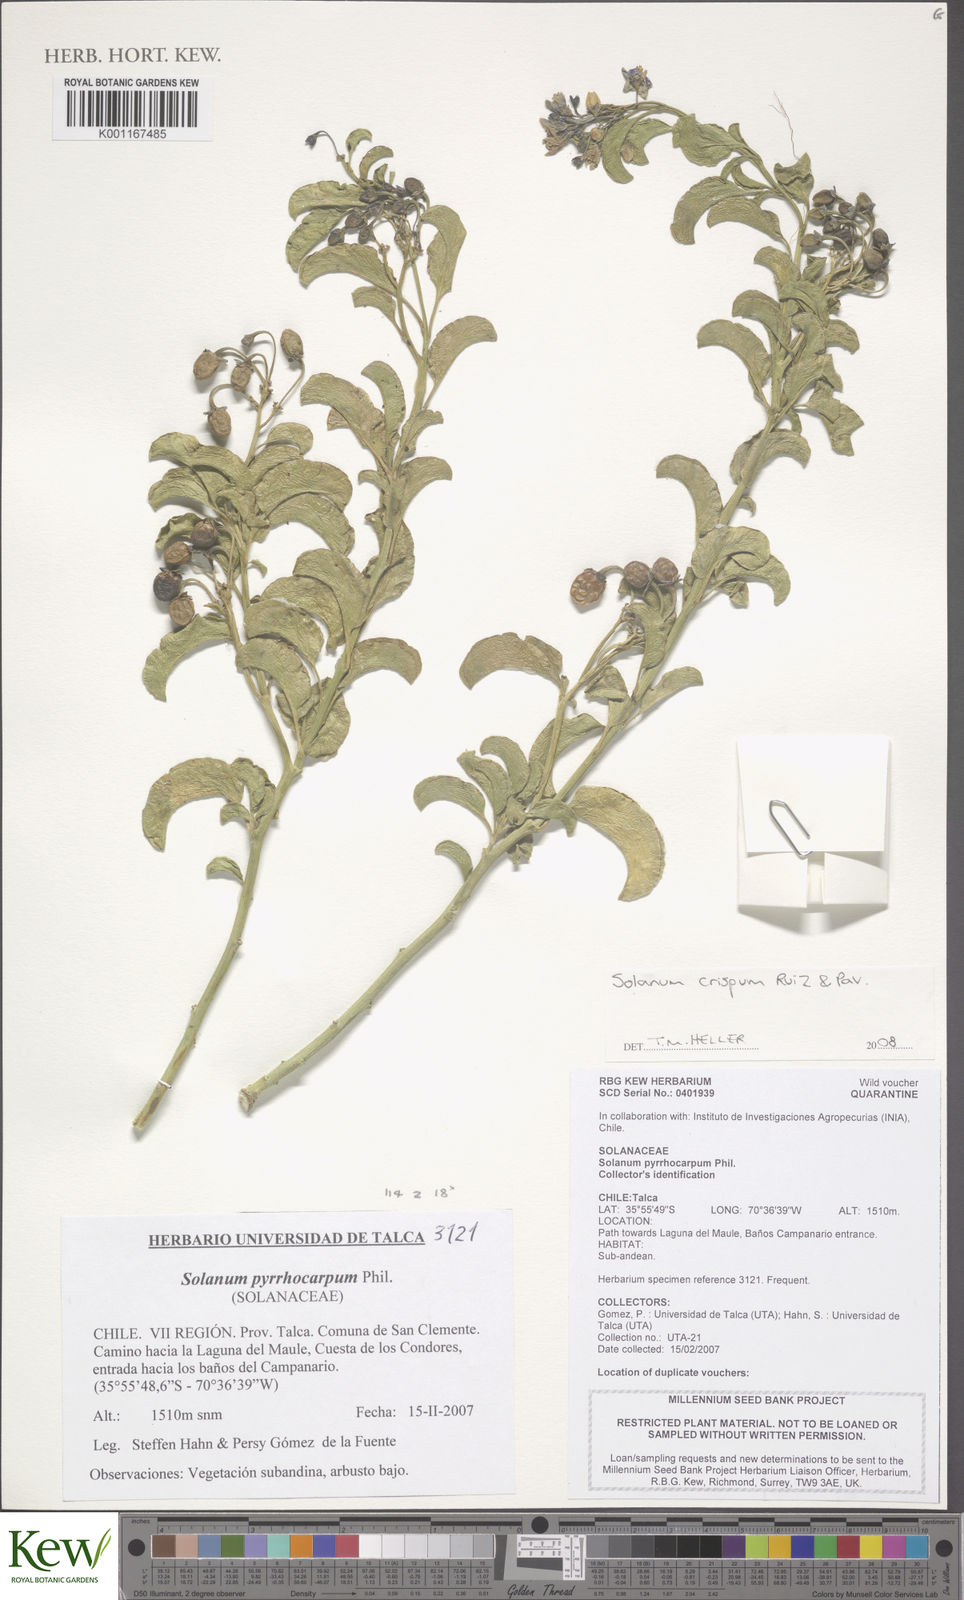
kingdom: Plantae
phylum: Tracheophyta
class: Magnoliopsida
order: Solanales
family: Solanaceae
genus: Solanum
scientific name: Solanum crispum
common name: Chilean nightshade
